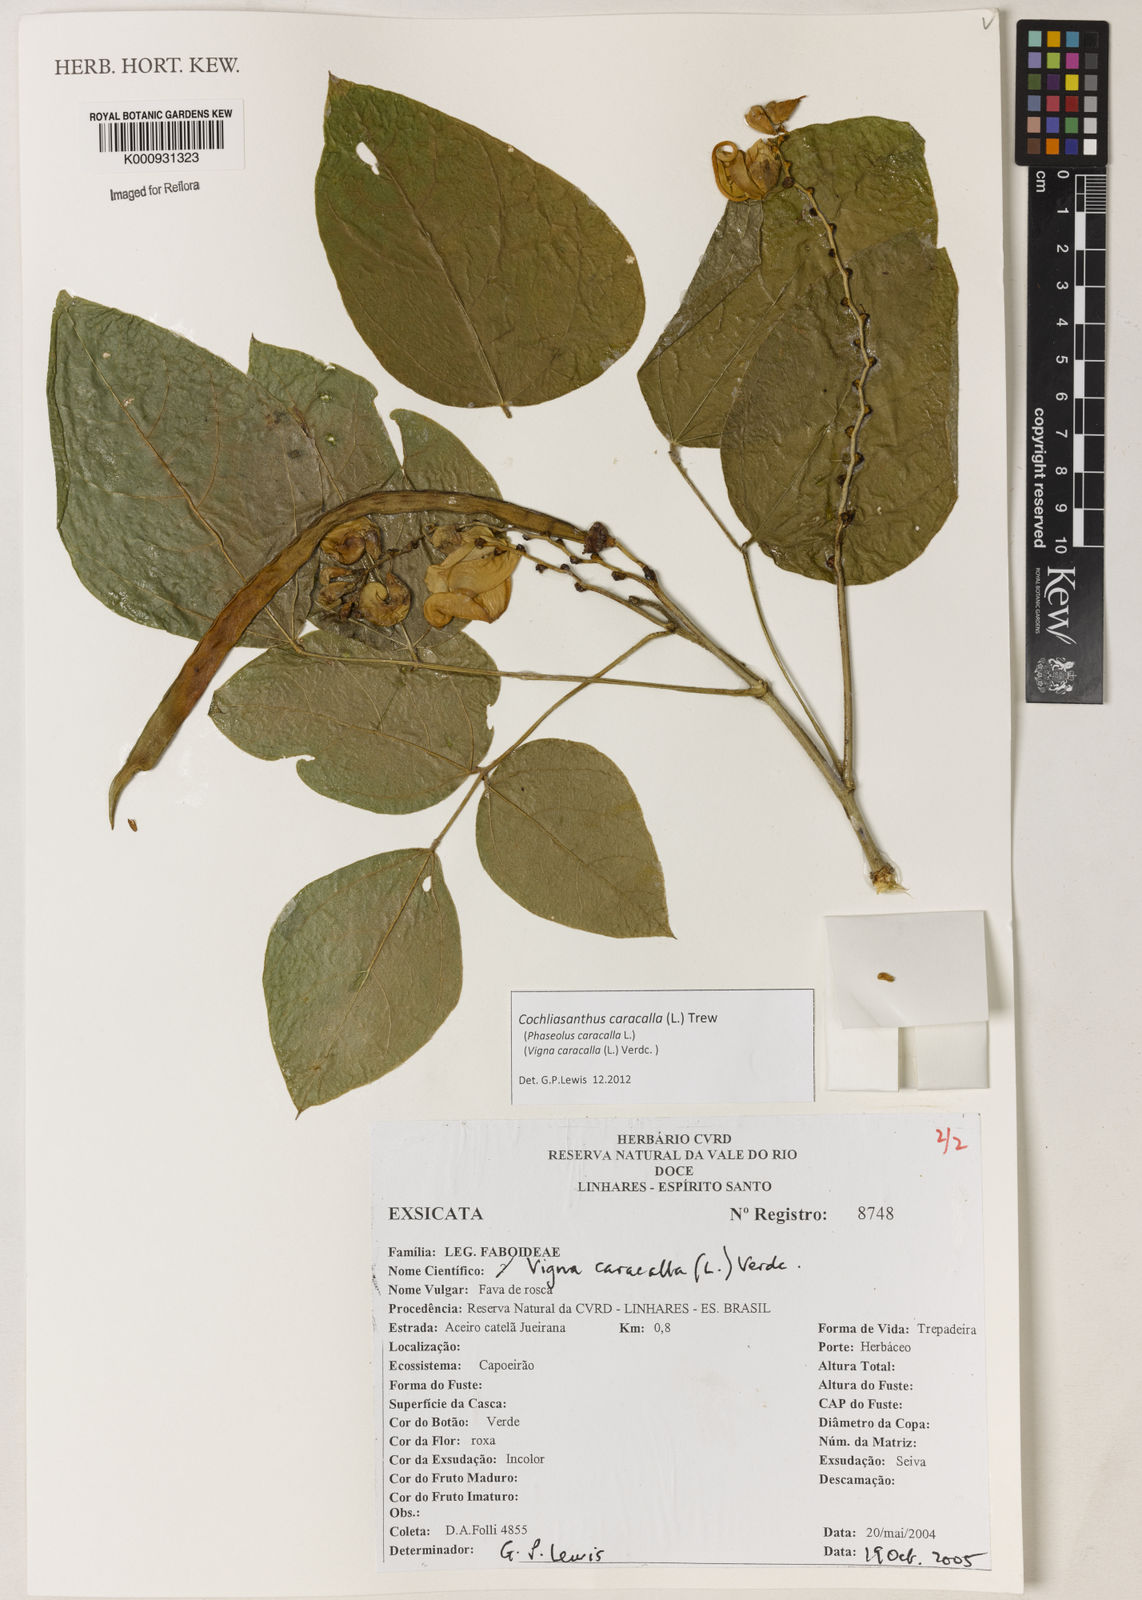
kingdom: Plantae
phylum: Tracheophyta
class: Magnoliopsida
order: Fabales
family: Fabaceae
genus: Cochliasanthus
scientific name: Cochliasanthus caracalla
